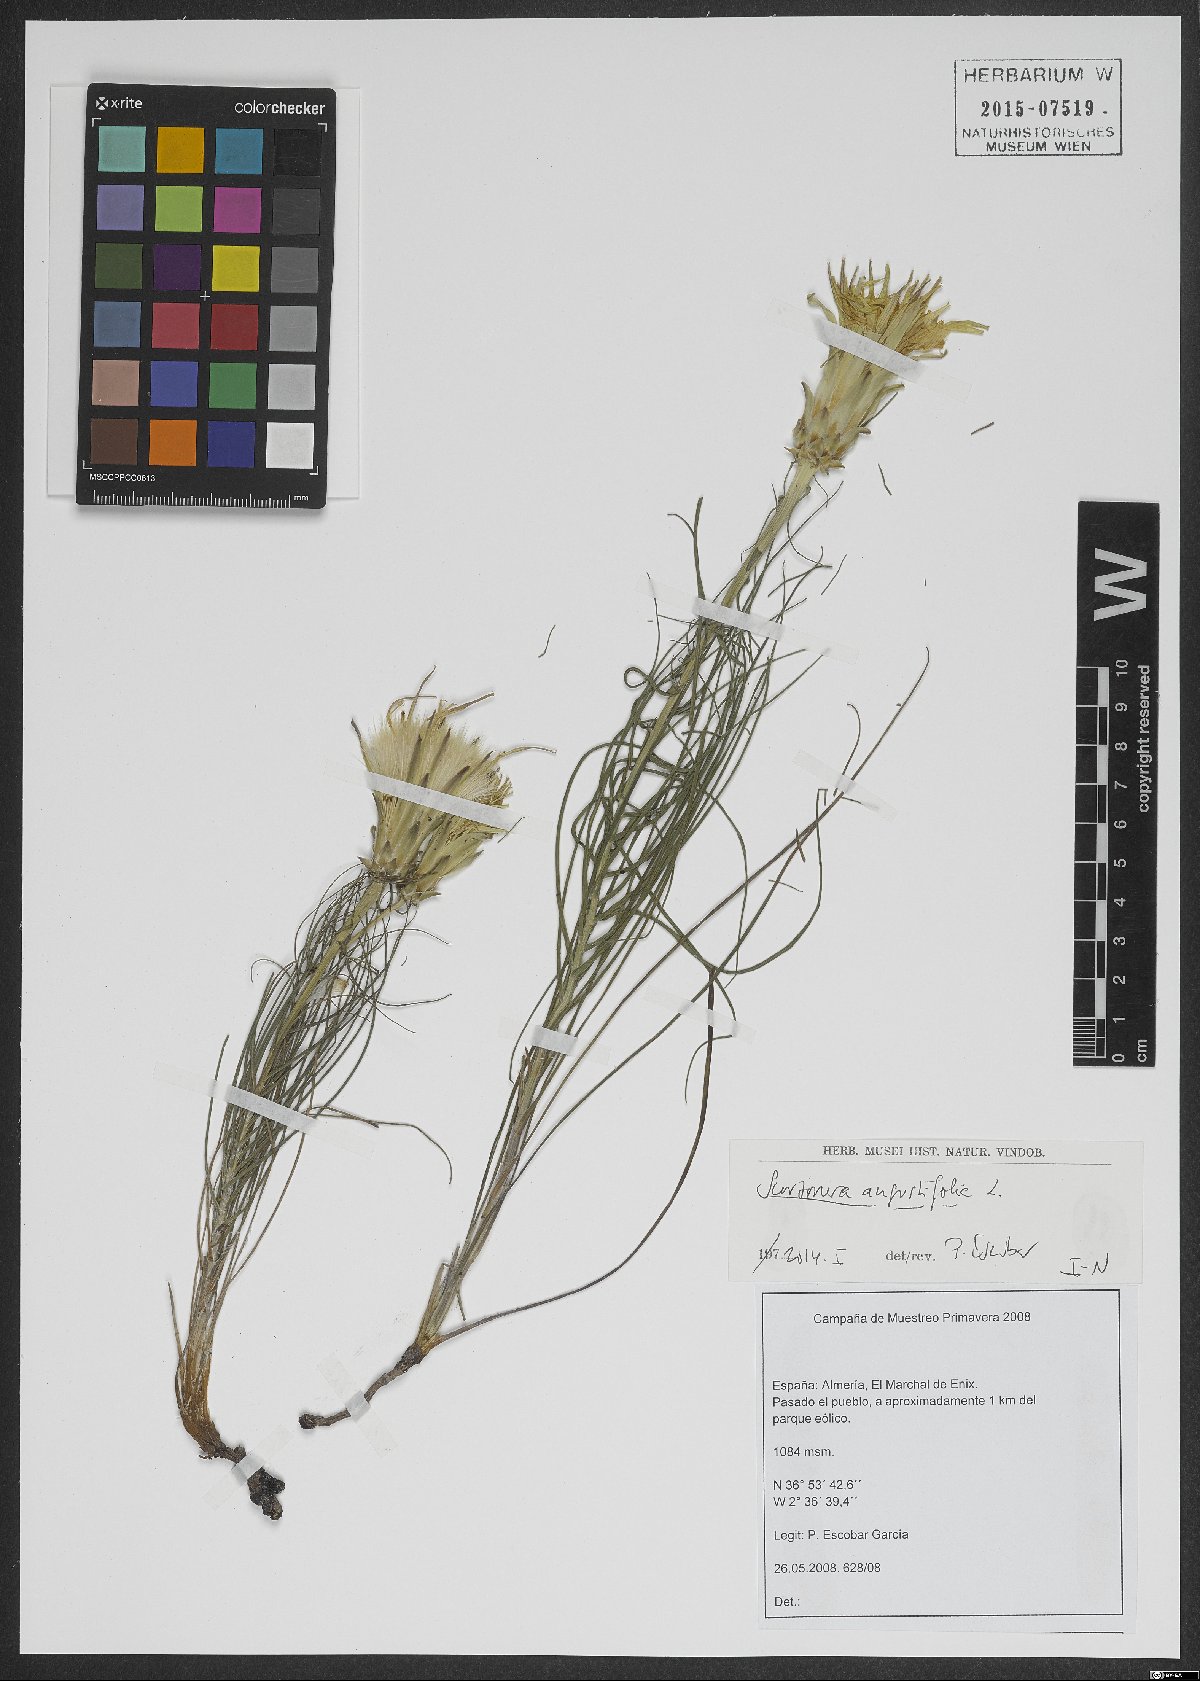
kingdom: Plantae
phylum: Tracheophyta
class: Magnoliopsida
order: Asterales
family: Asteraceae
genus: Scorzonera
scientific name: Scorzonera angustifolia
